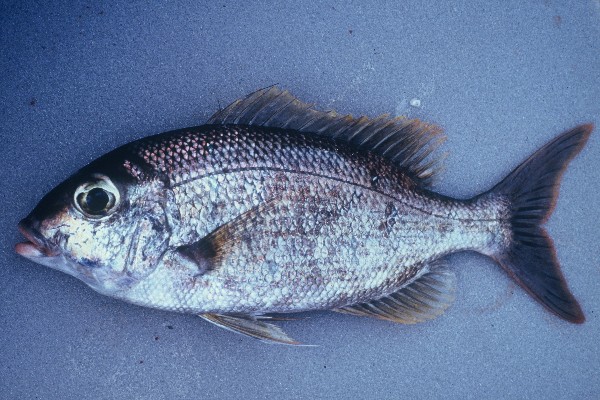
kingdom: Animalia
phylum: Chordata
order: Perciformes
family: Lethrinidae
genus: Gymnocranius
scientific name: Gymnocranius grandoculis
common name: Blue-lined large-eye bream
